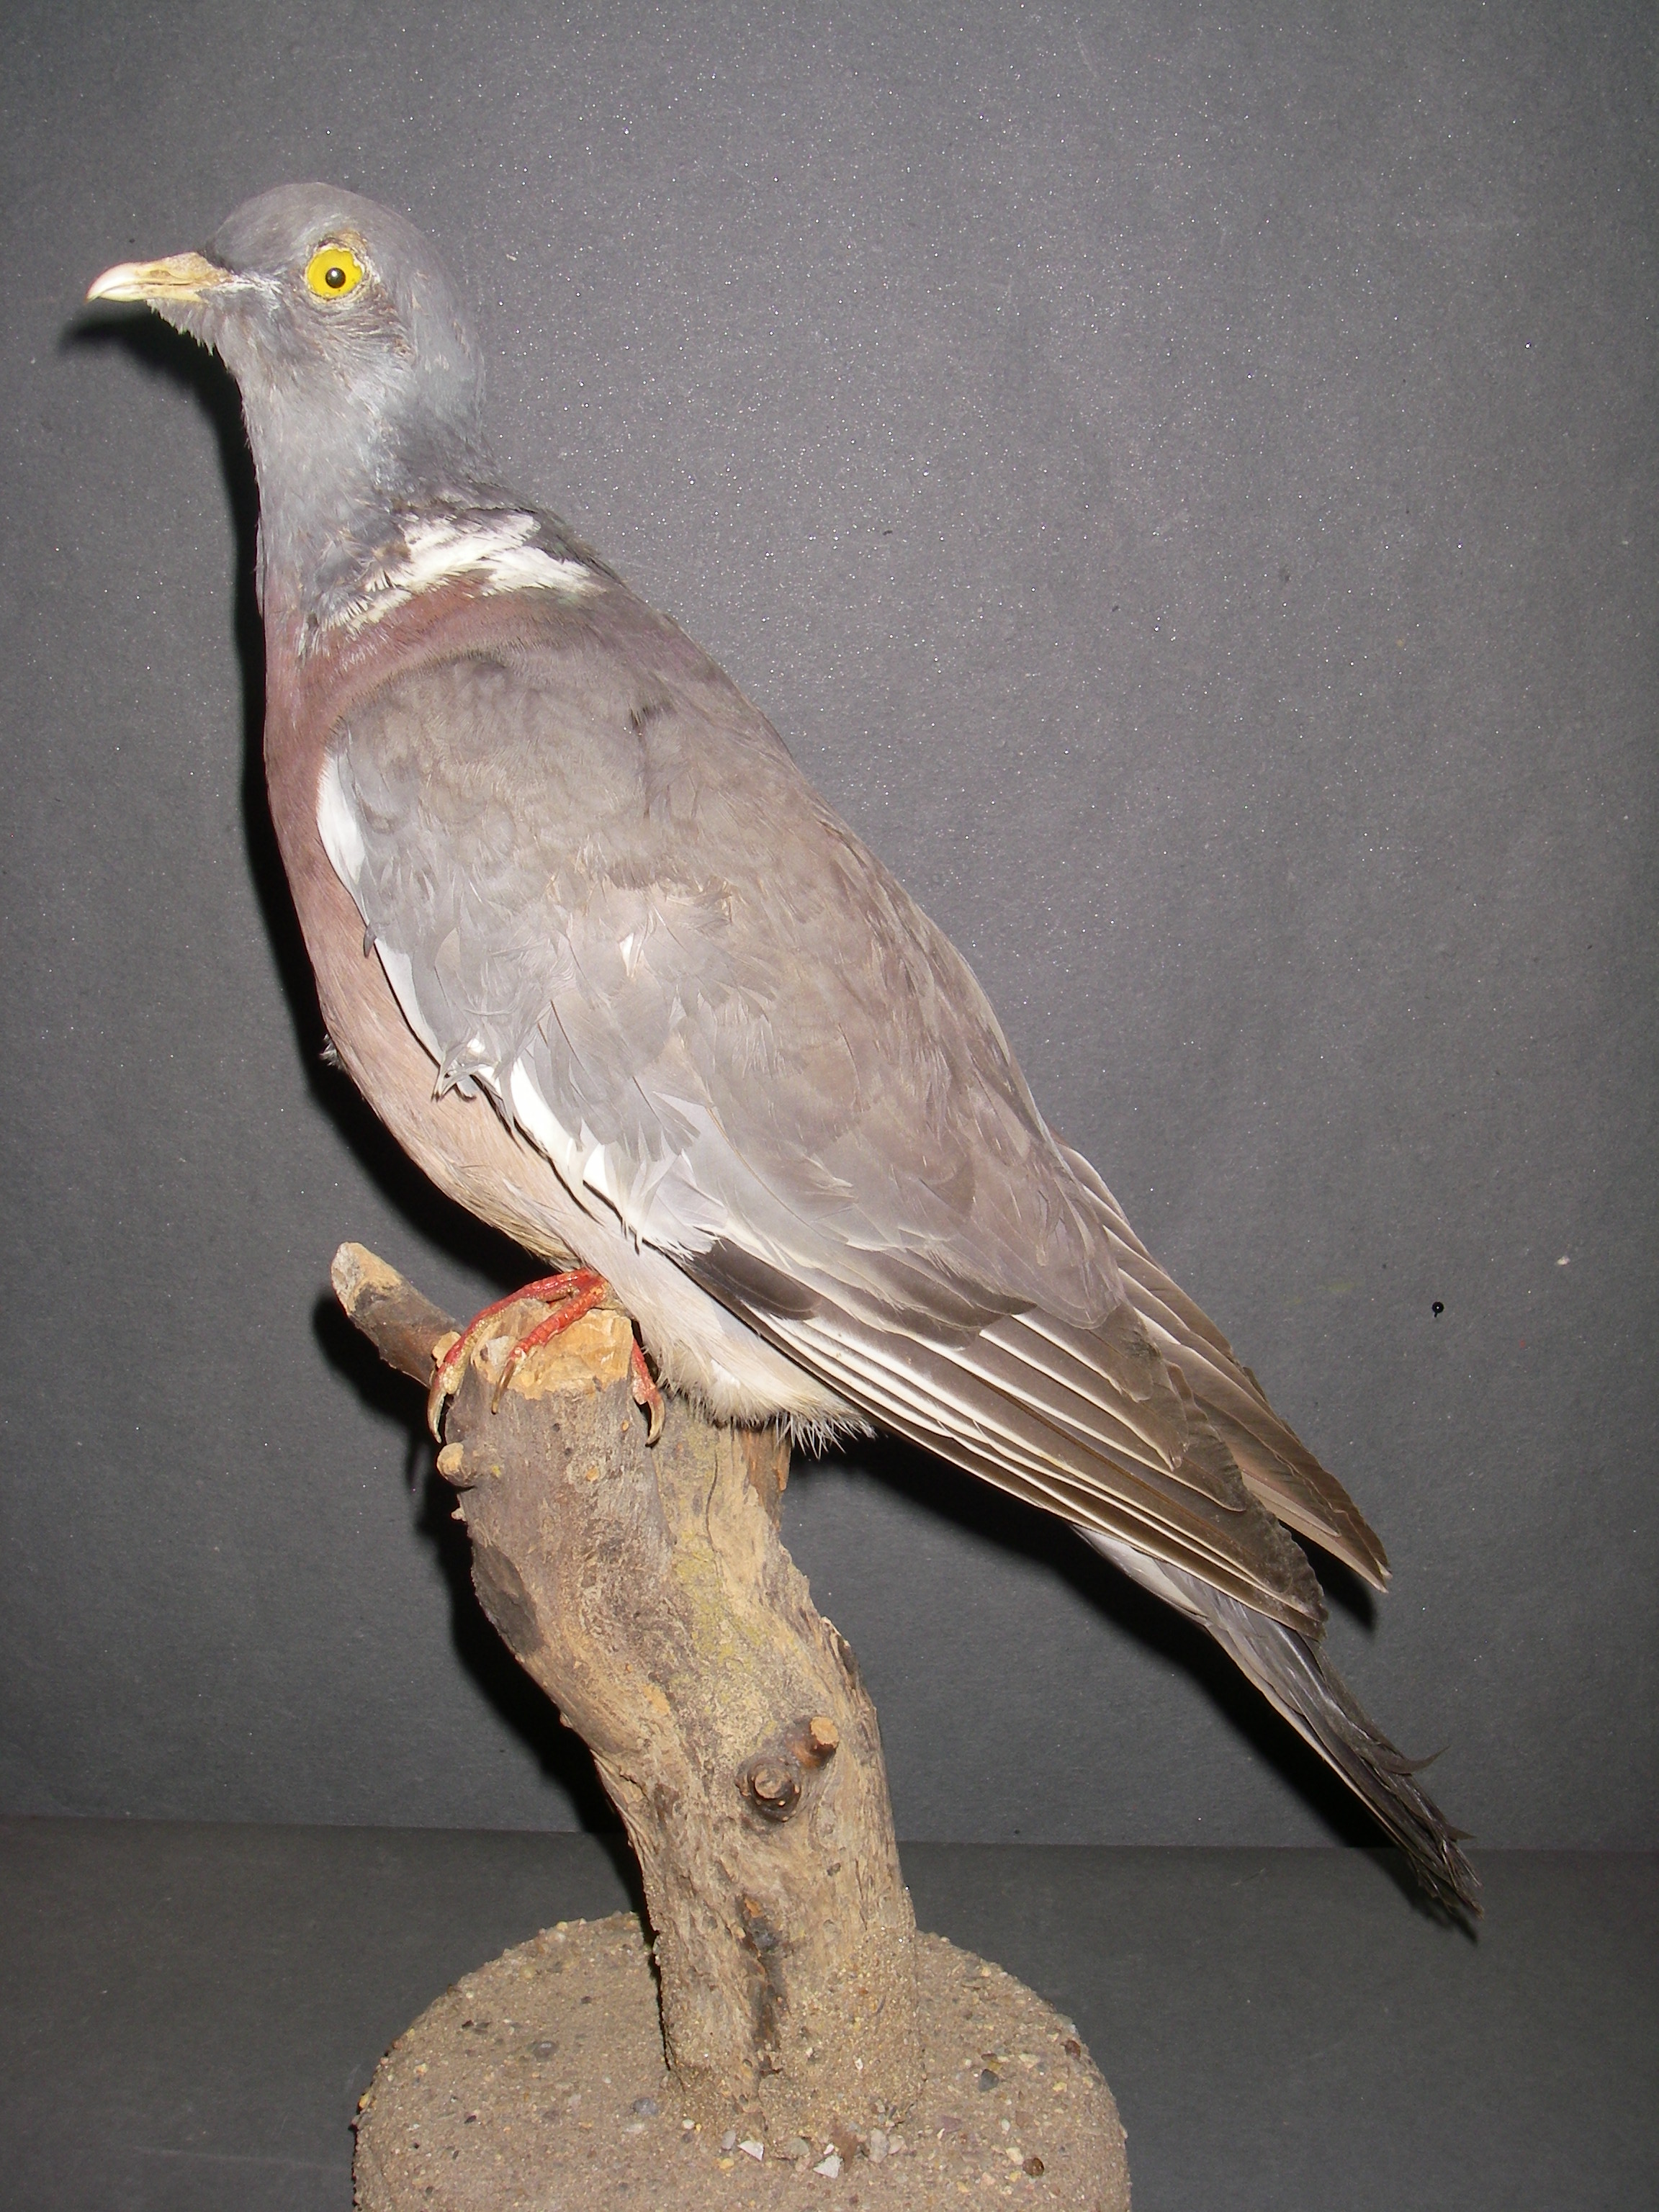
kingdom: Animalia
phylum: Chordata
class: Aves
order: Columbiformes
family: Columbidae
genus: Columba
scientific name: Columba palumbus
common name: Common wood pigeon
